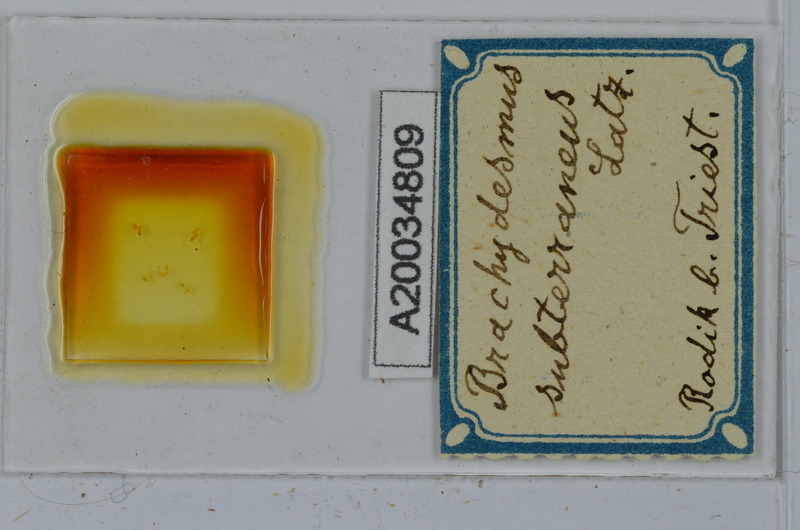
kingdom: Animalia
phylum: Arthropoda
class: Diplopoda
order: Polydesmida
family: Polydesmidae
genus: Brachydesmus
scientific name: Brachydesmus subterraneus
